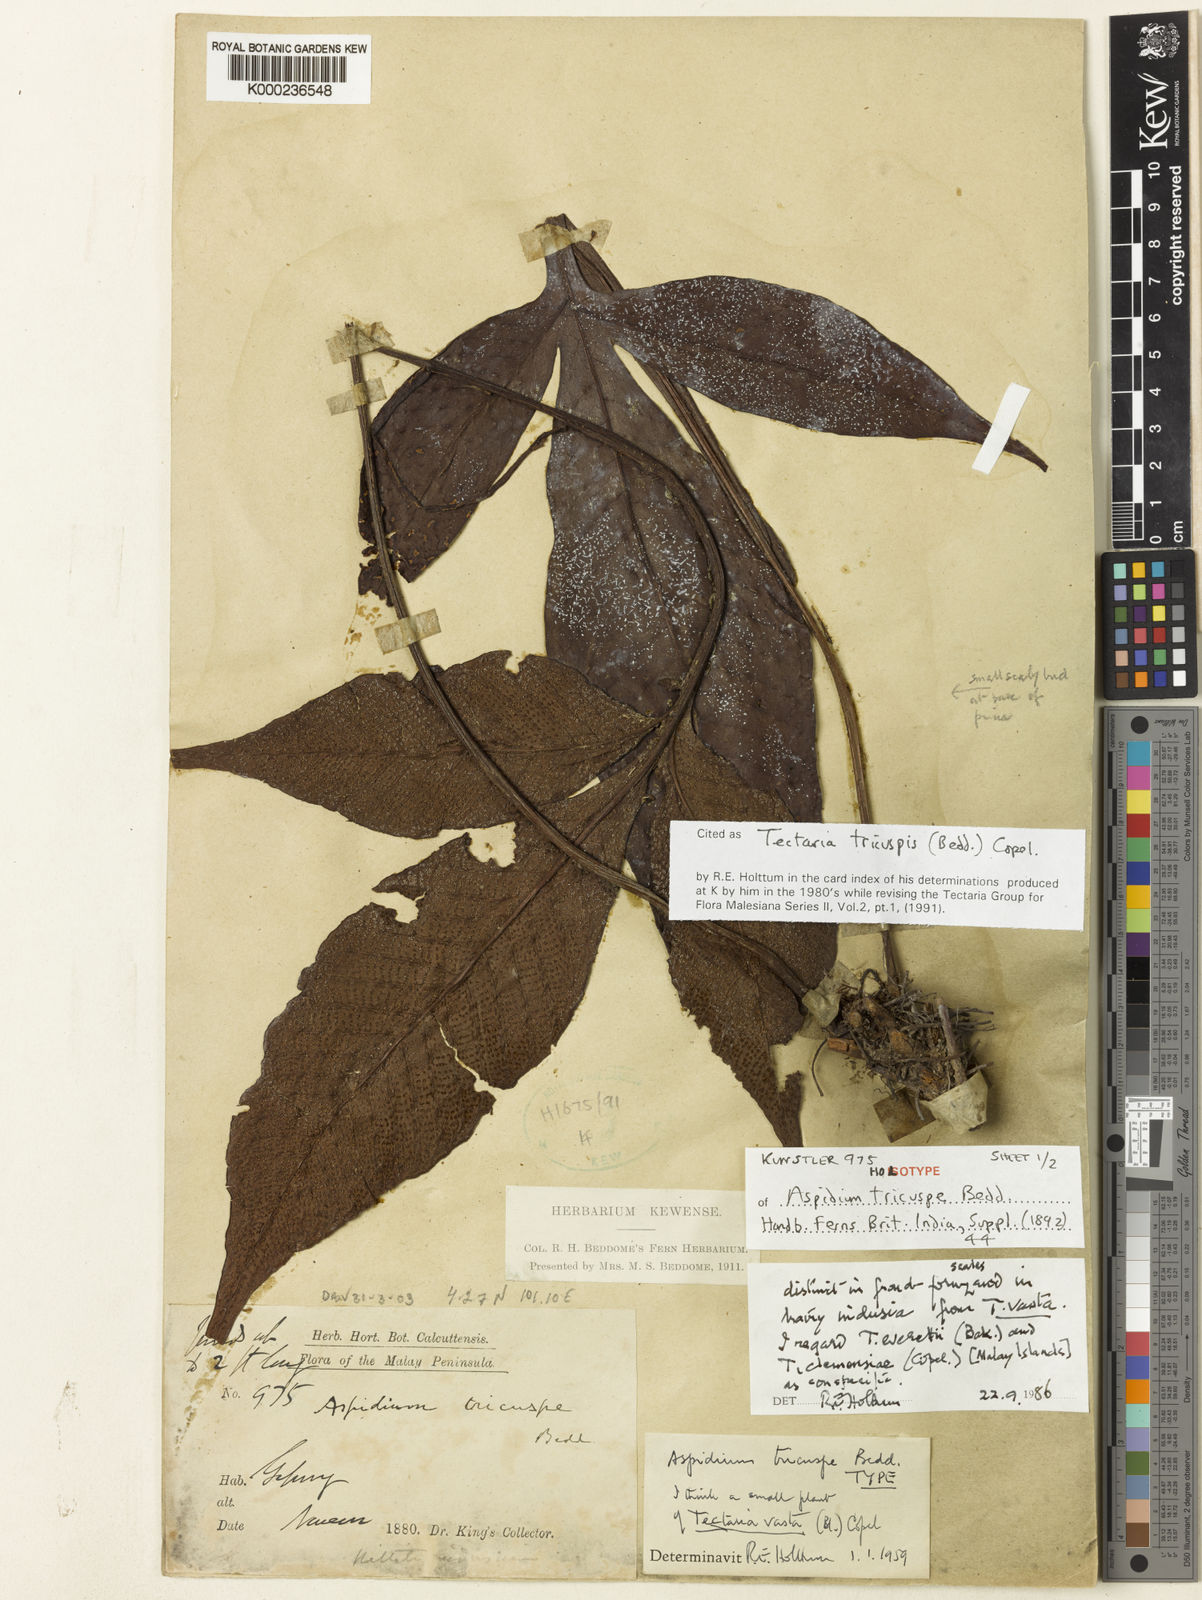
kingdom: Plantae
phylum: Tracheophyta
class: Polypodiopsida
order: Polypodiales
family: Tectariaceae
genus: Tectaria
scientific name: Tectaria tricuspis
